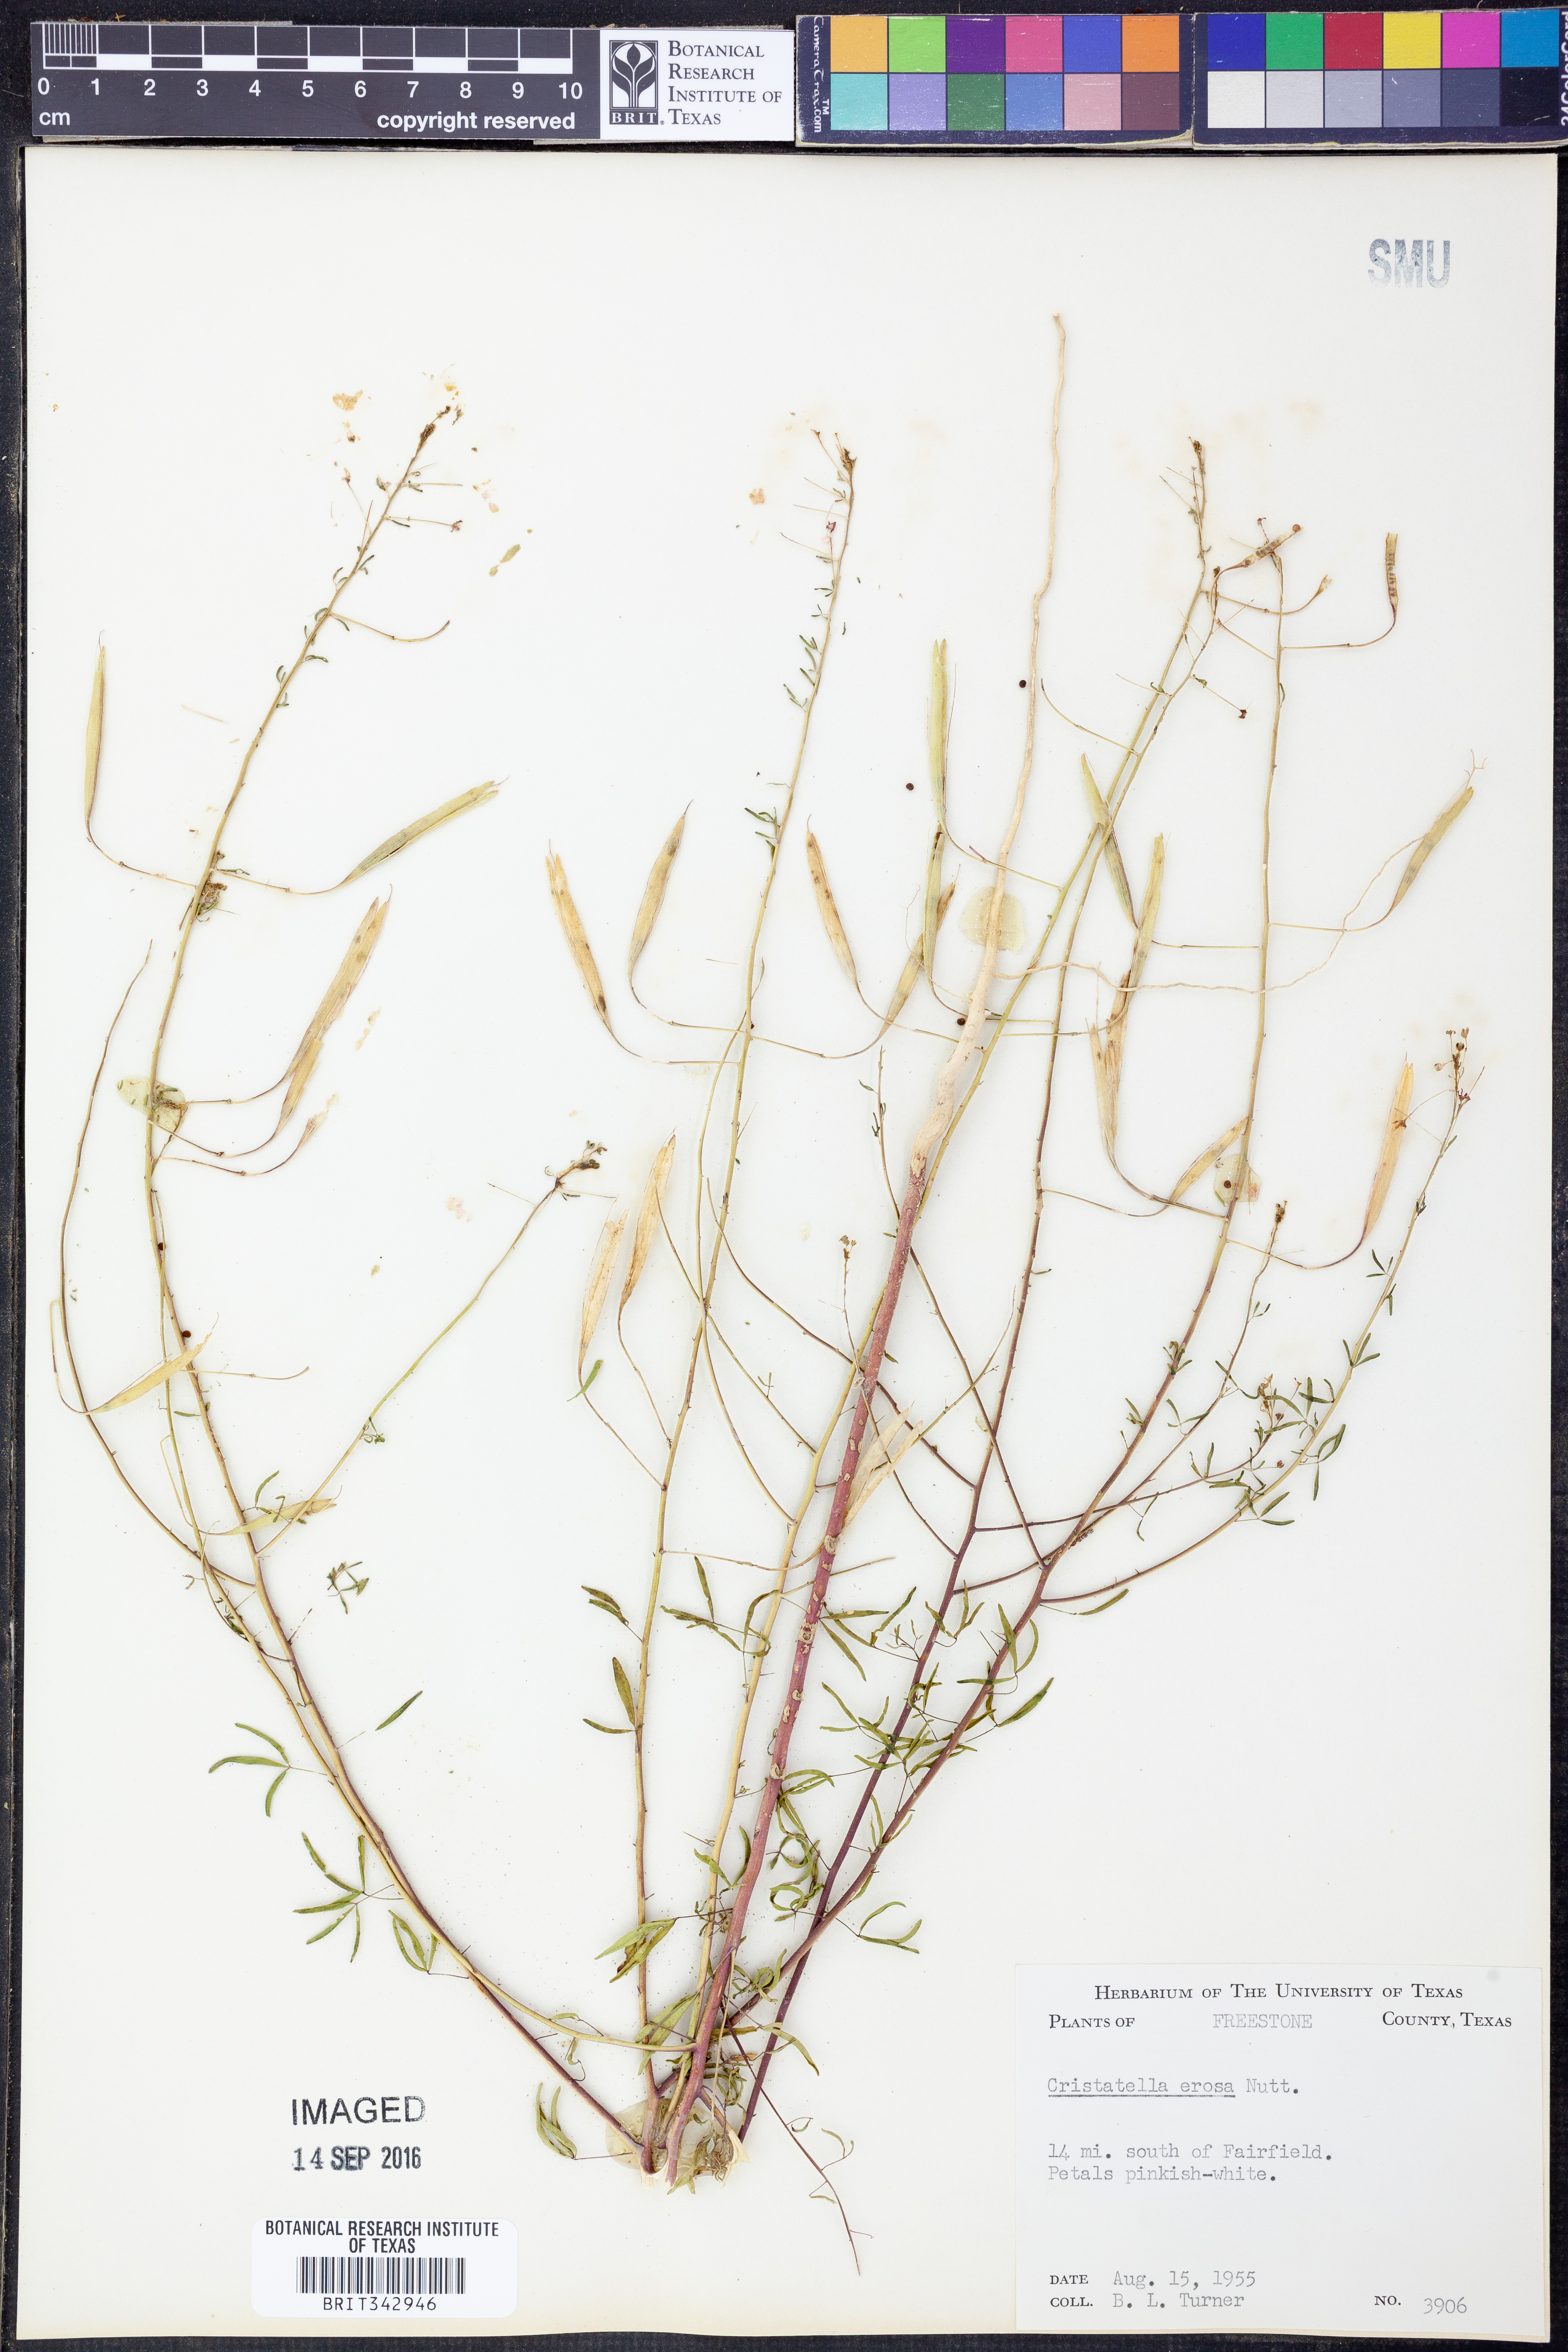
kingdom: Plantae
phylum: Tracheophyta
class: Magnoliopsida
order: Brassicales
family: Cleomaceae
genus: Polanisia
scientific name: Polanisia erosa
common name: Large clammyweed
